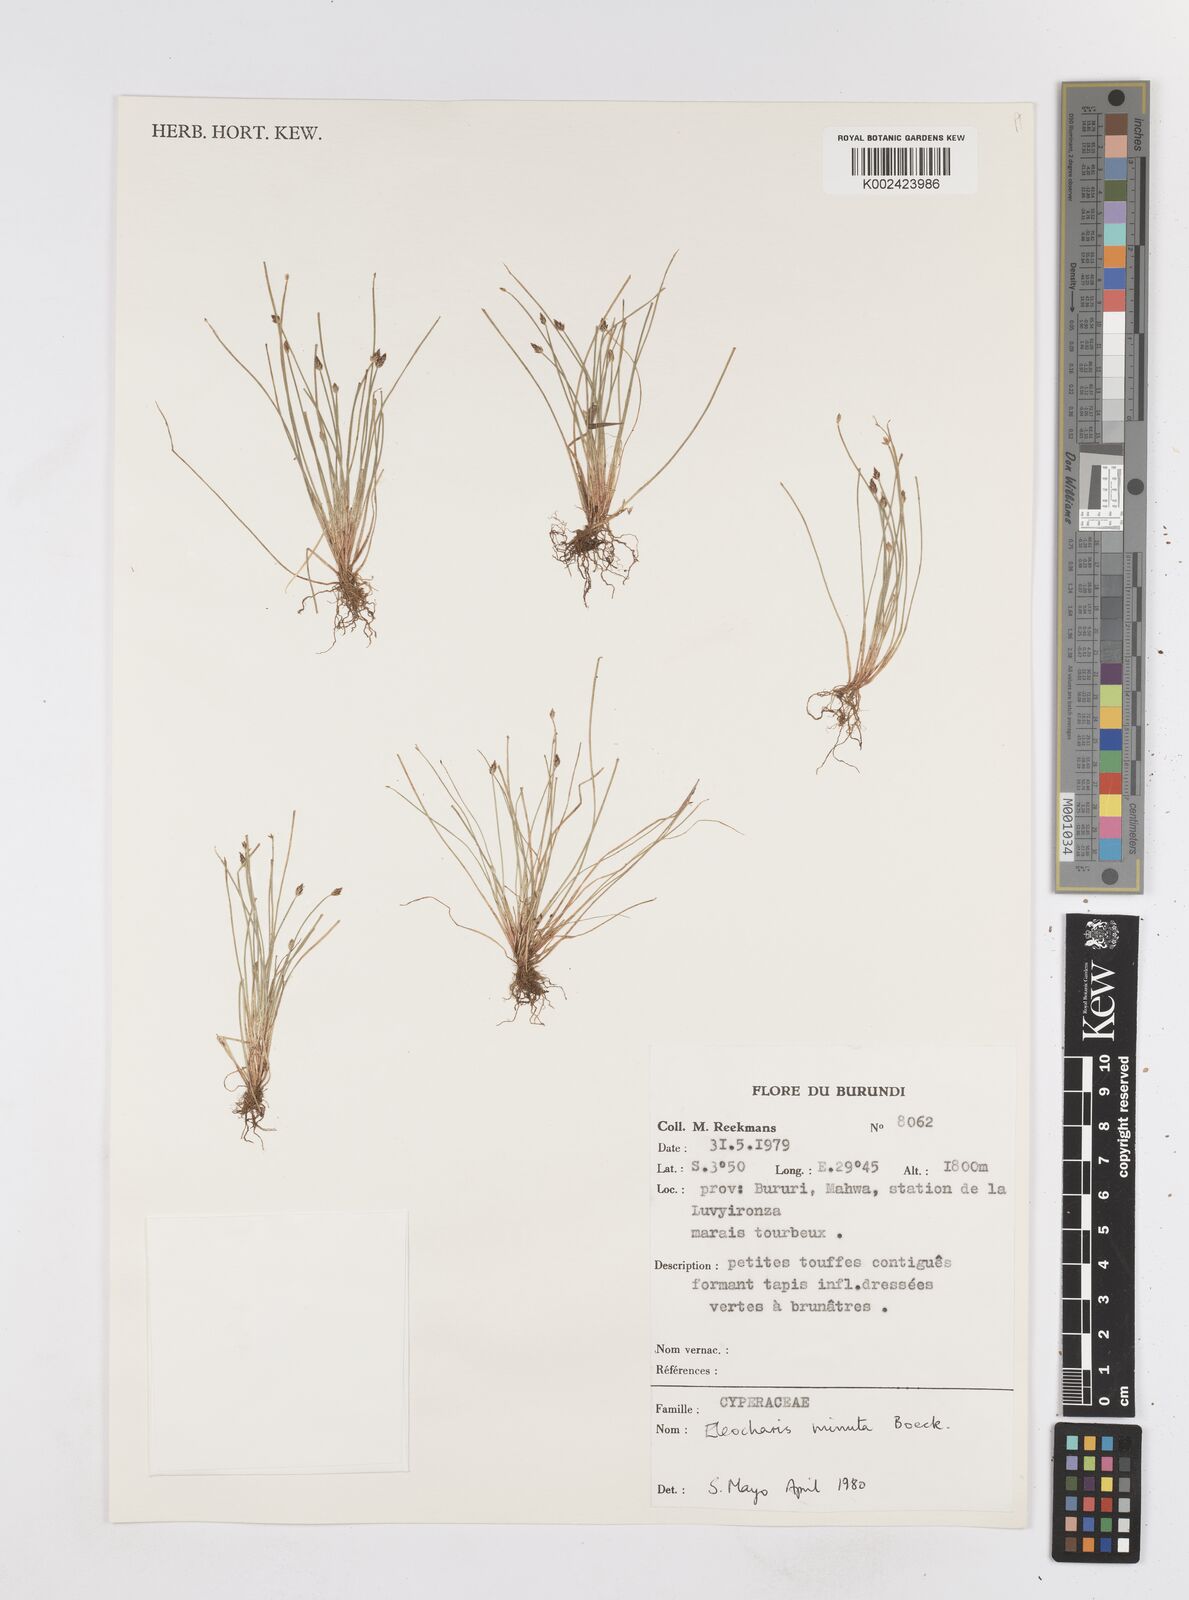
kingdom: Plantae
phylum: Tracheophyta
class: Liliopsida
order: Poales
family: Cyperaceae
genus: Eleocharis
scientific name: Eleocharis minuta
